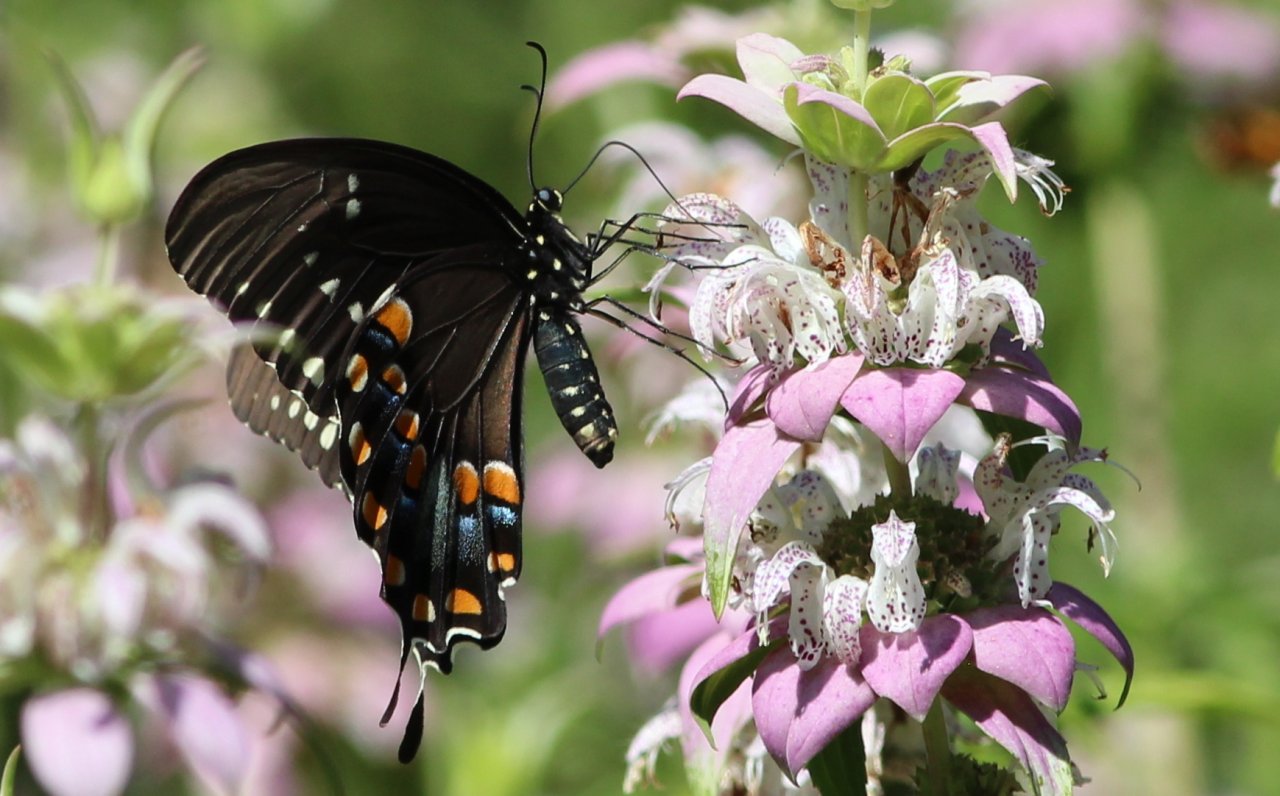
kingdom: Animalia
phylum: Arthropoda
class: Insecta
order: Lepidoptera
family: Papilionidae
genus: Pterourus
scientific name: Pterourus troilus
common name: Spicebush Swallowtail
